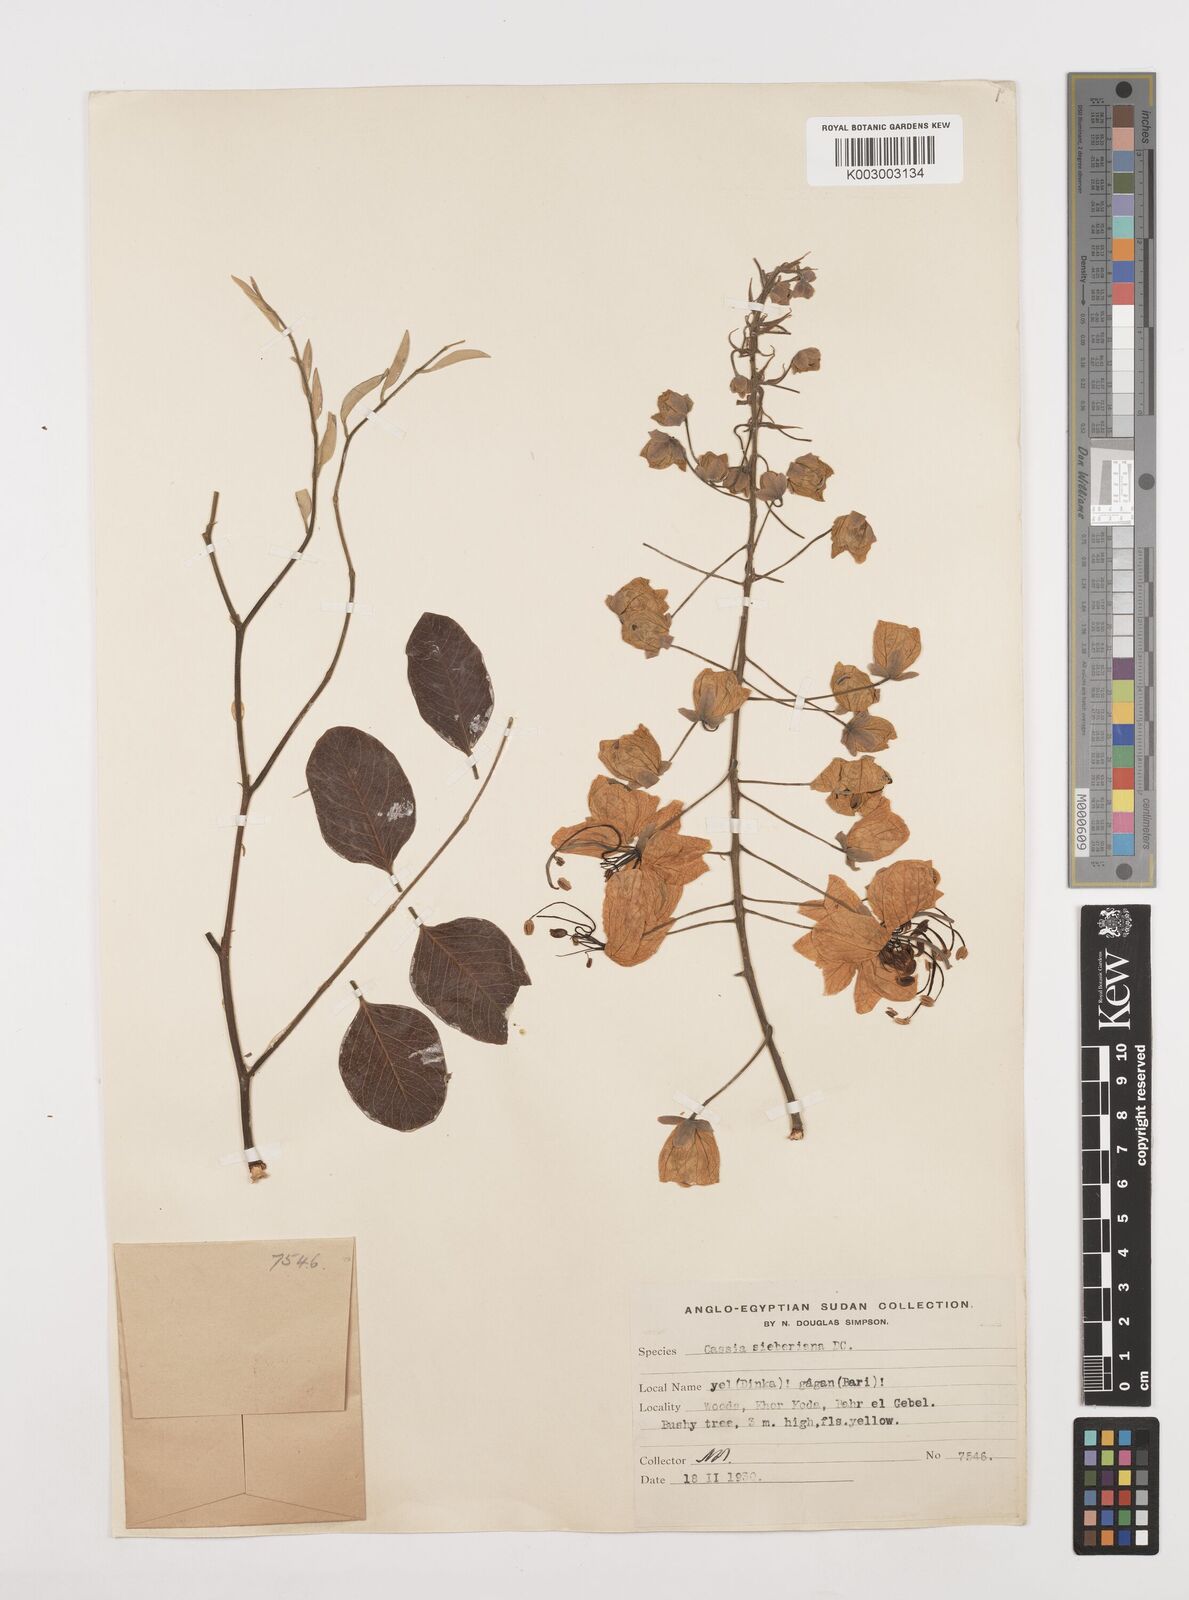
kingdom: Plantae
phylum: Tracheophyta
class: Magnoliopsida
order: Fabales
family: Fabaceae
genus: Cassia
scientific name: Cassia sieberiana
